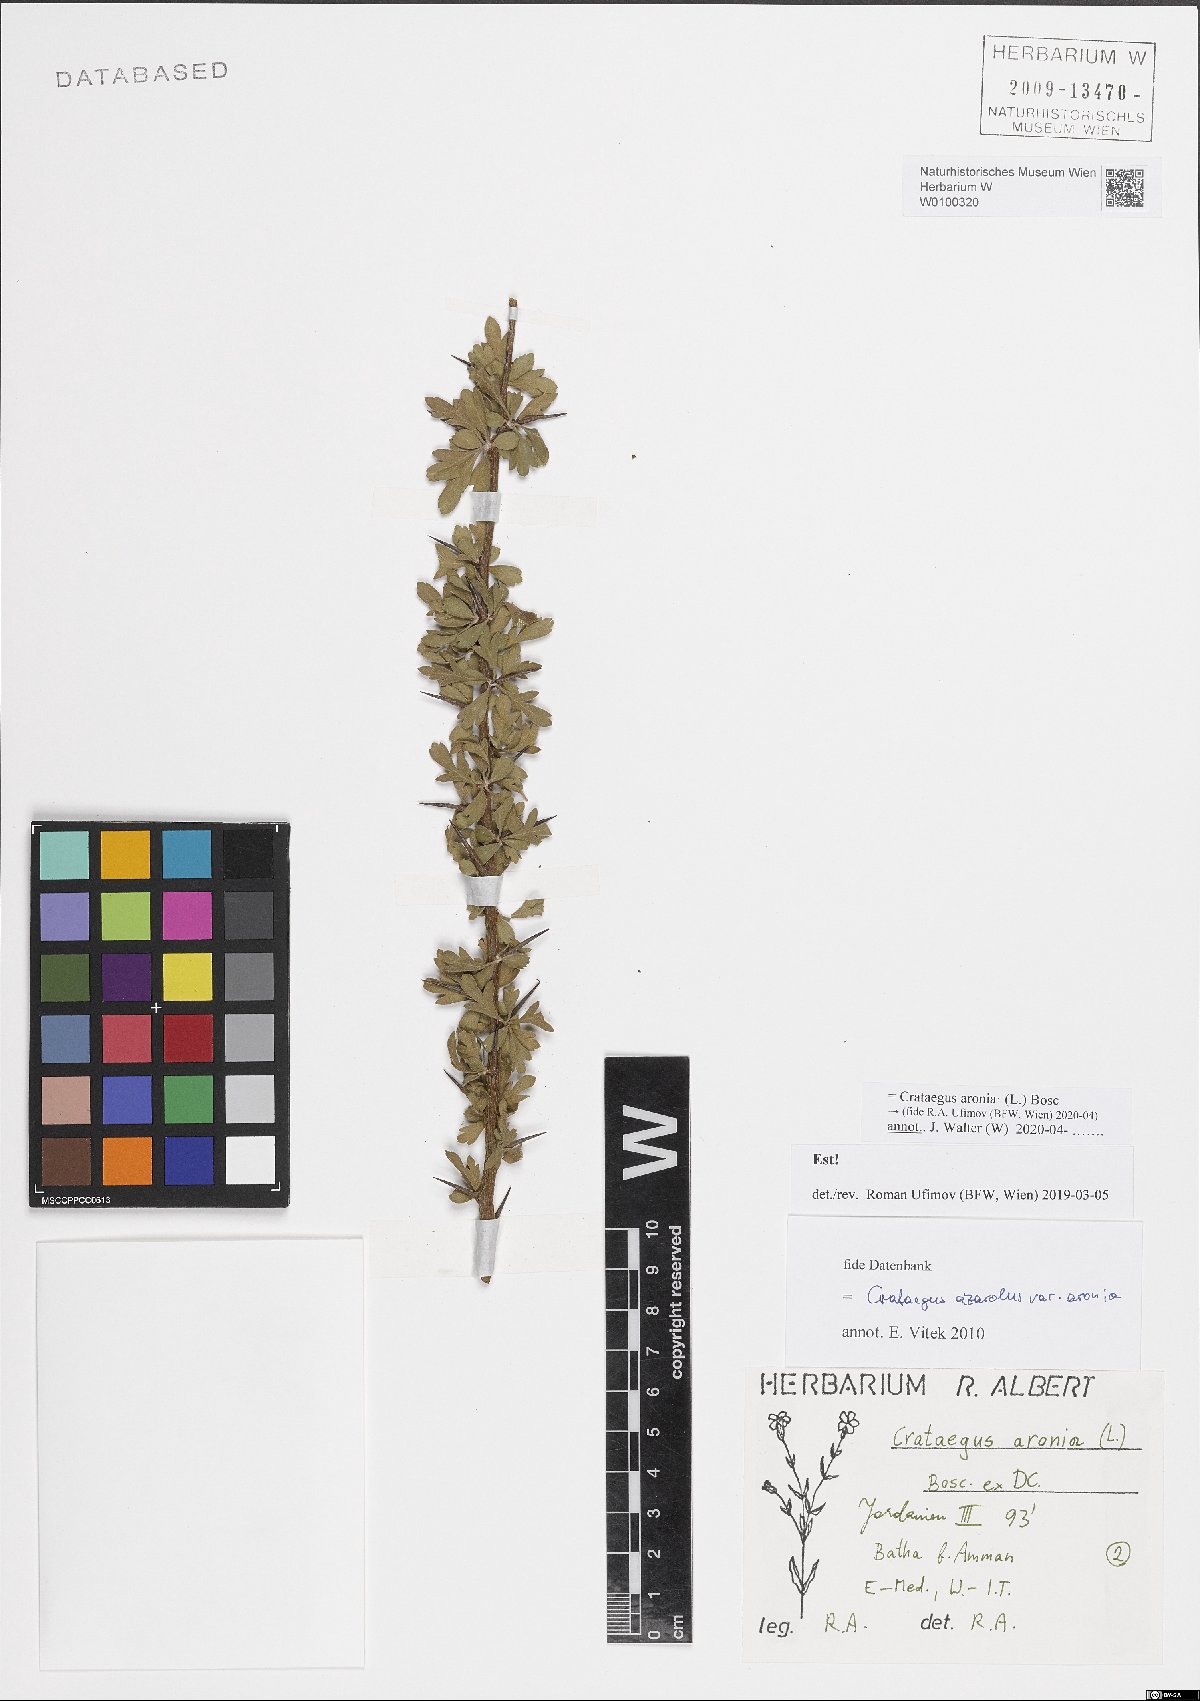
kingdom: Plantae
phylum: Tracheophyta
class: Magnoliopsida
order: Rosales
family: Rosaceae
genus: Crataegus
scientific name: Crataegus azarolus
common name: Azarole
